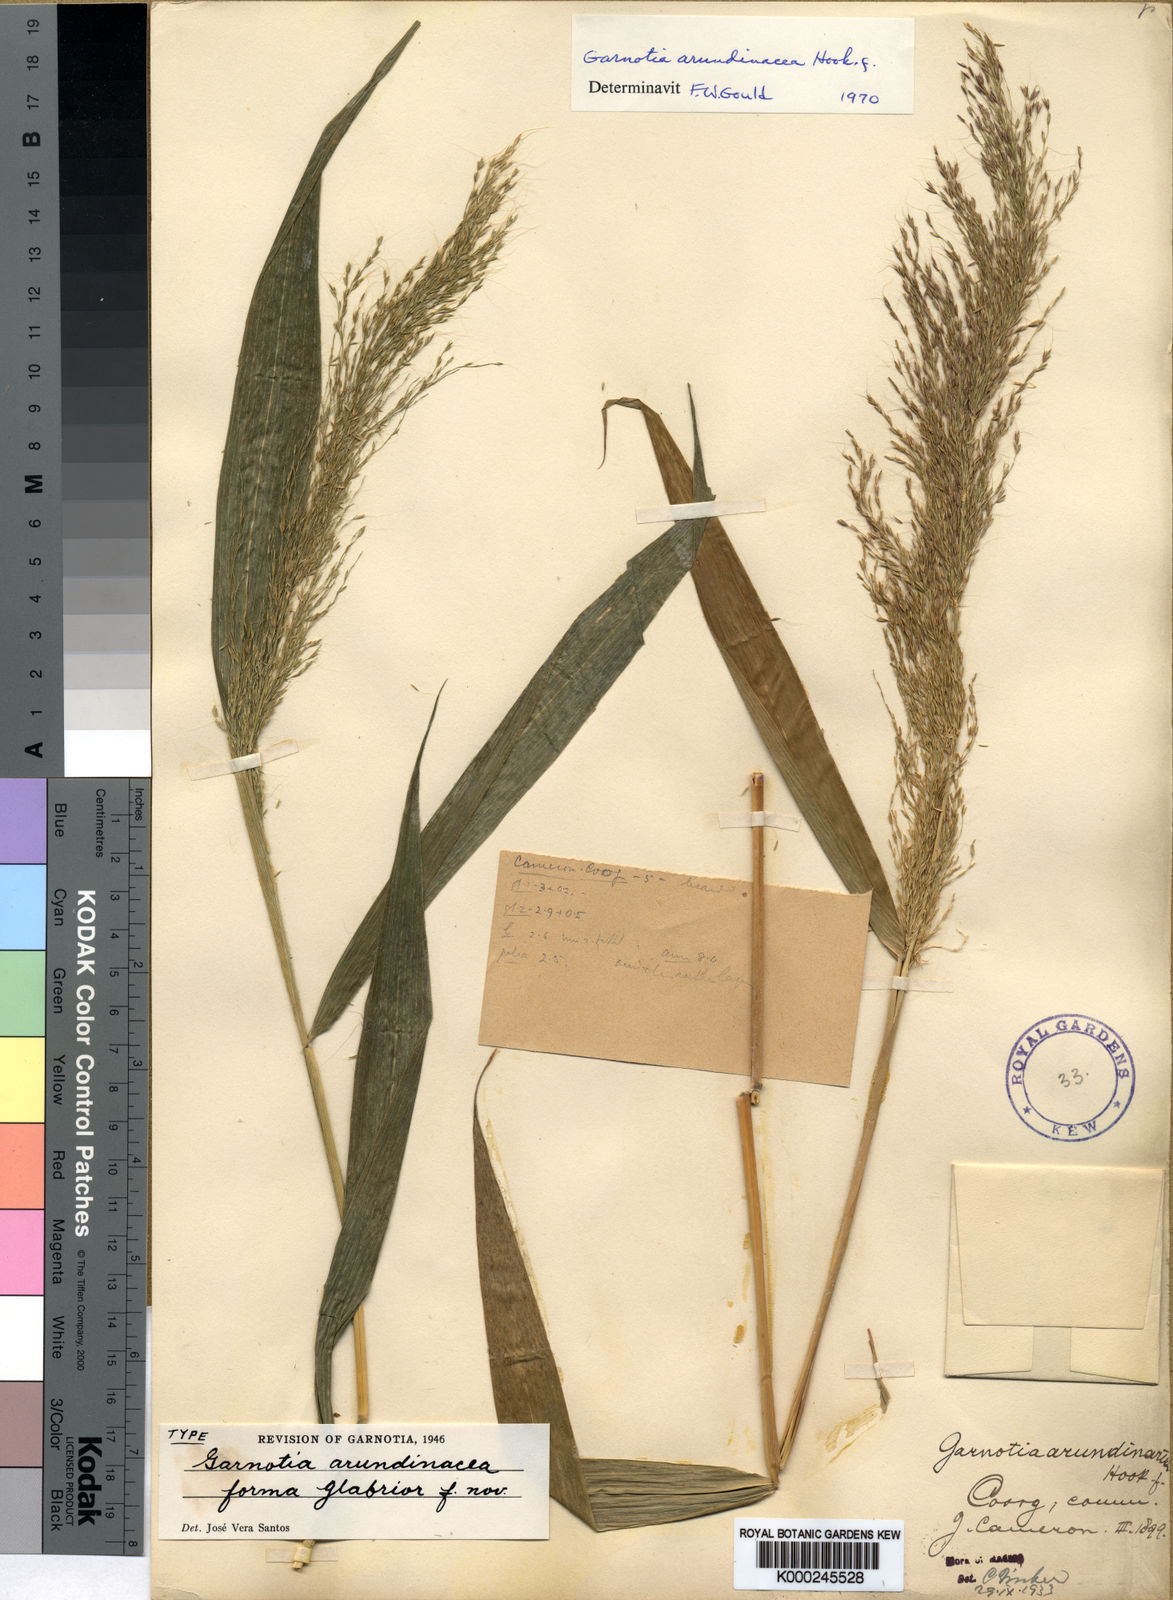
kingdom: Plantae
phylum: Tracheophyta
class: Liliopsida
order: Poales
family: Poaceae
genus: Garnotia
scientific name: Garnotia arundinacea
